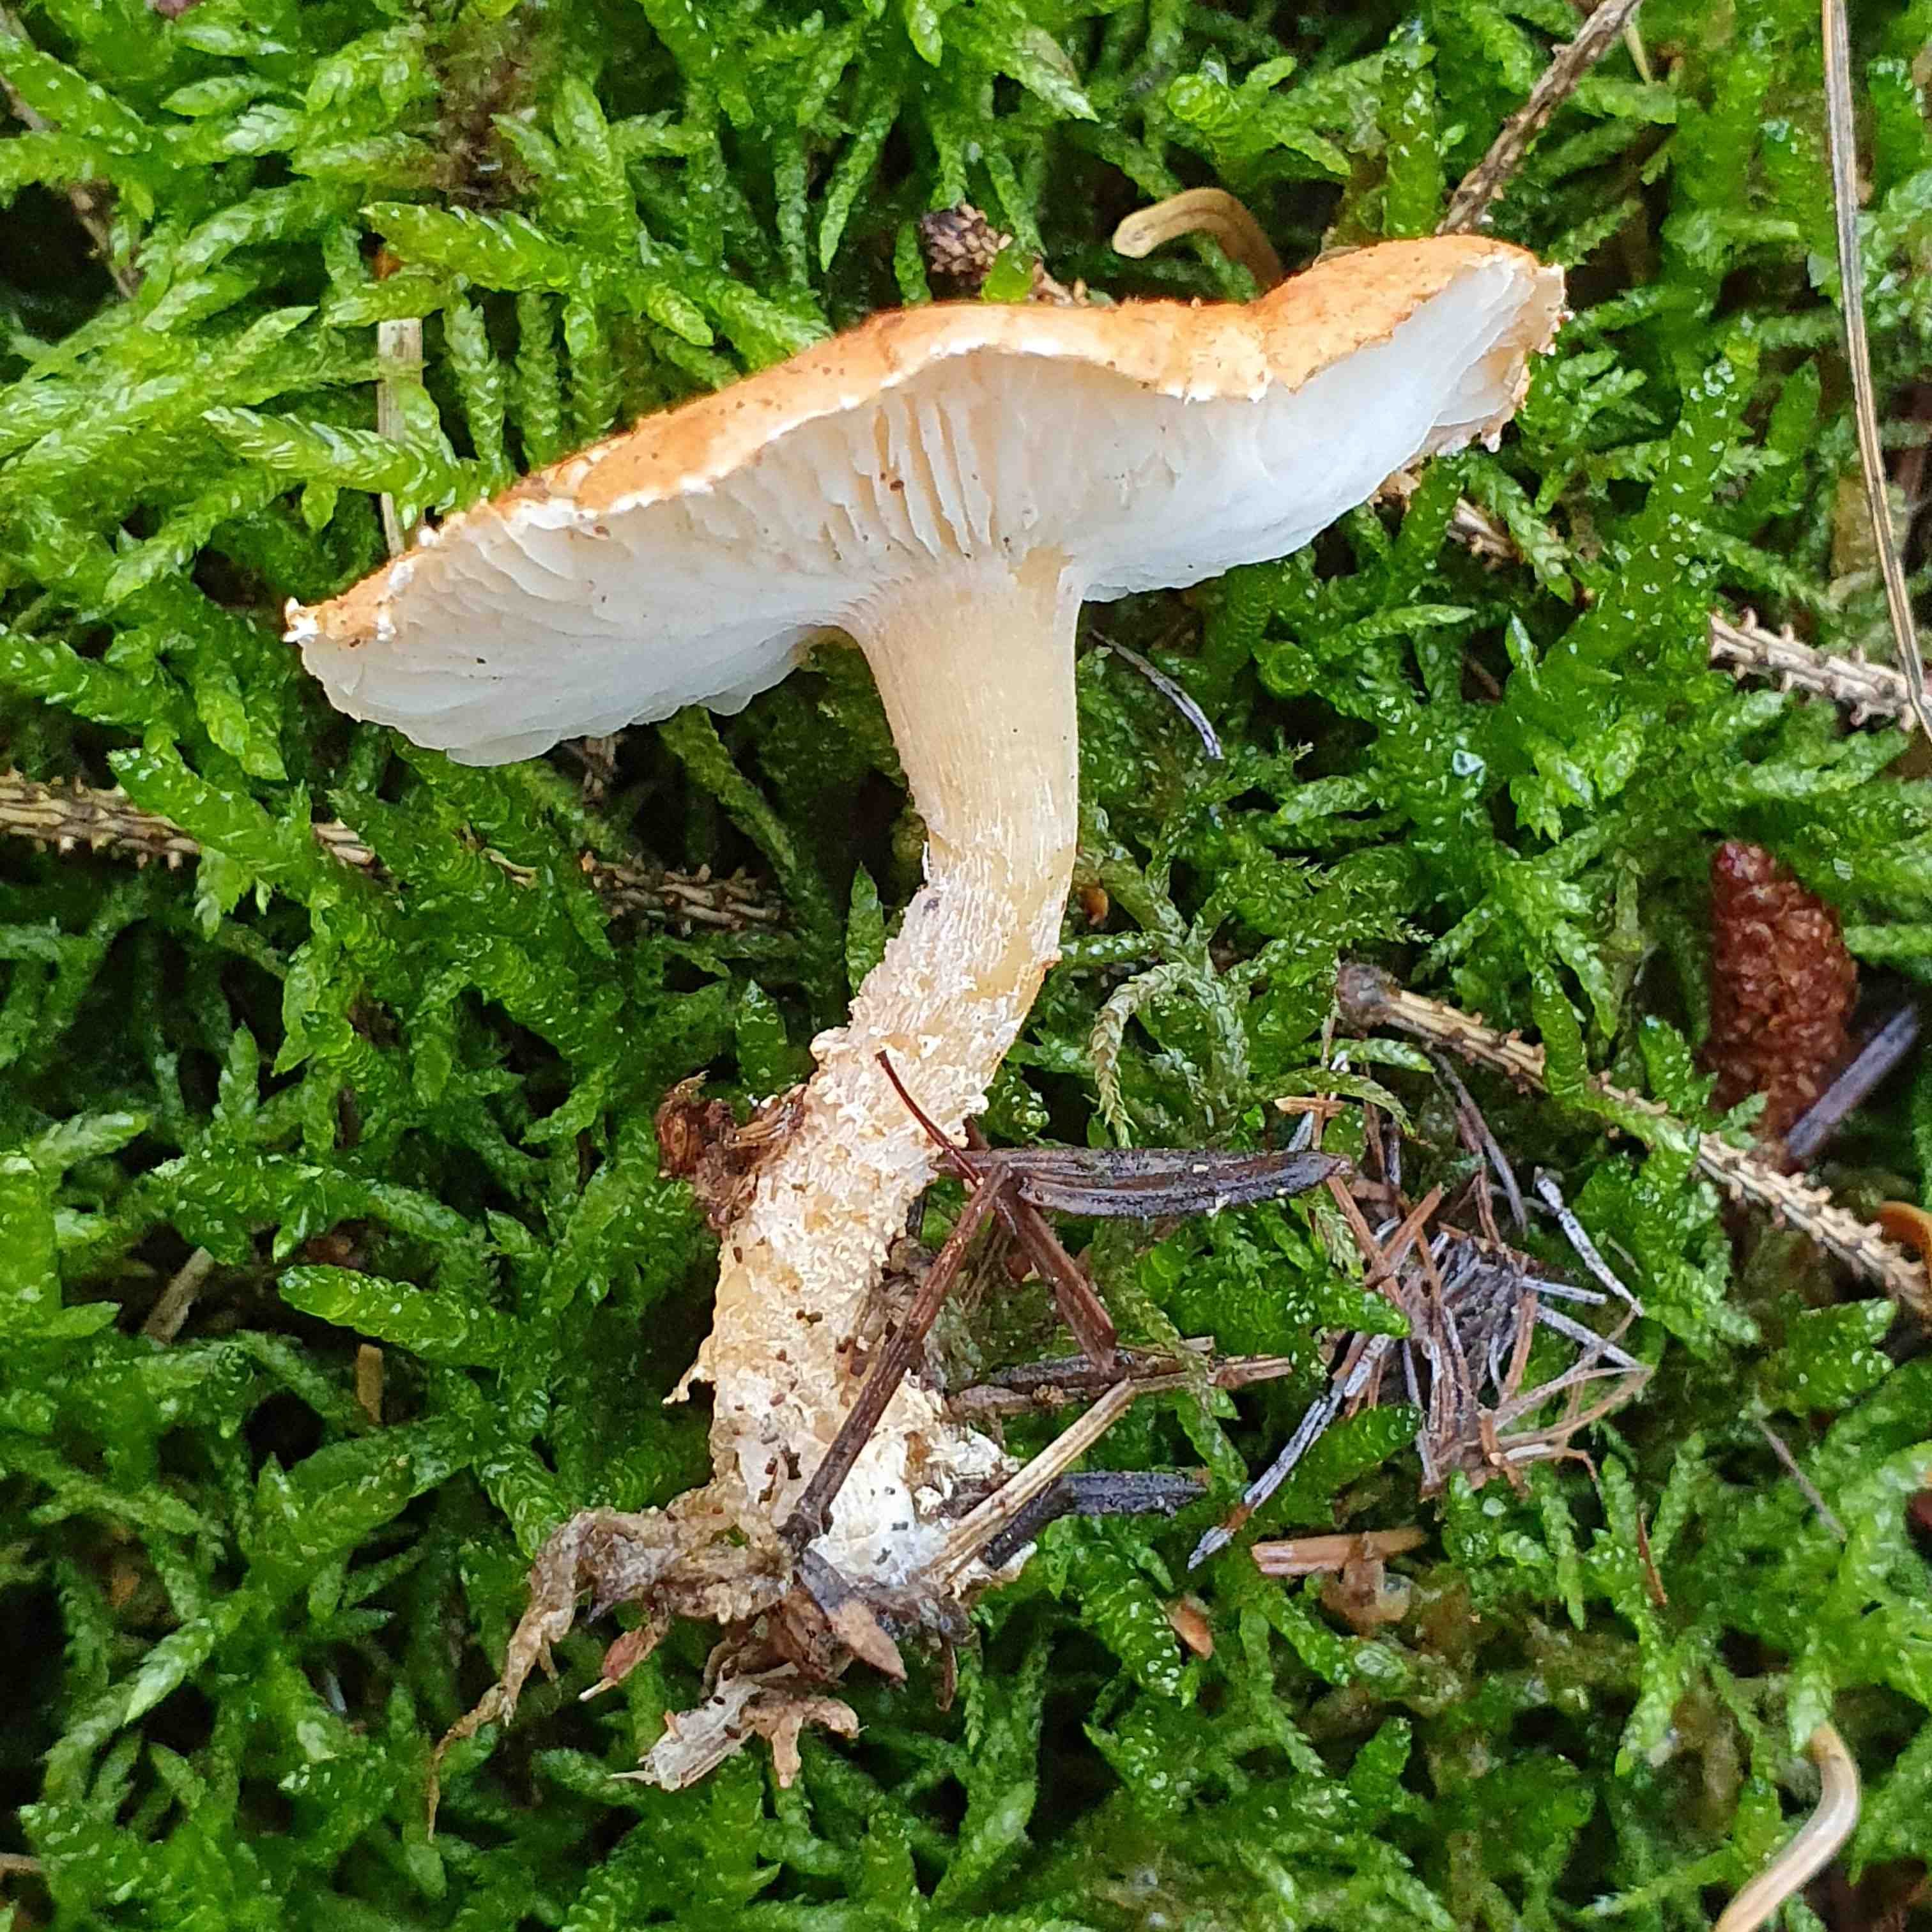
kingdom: Fungi
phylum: Basidiomycota
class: Agaricomycetes
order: Agaricales
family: Agaricaceae
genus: Cystodermella
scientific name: Cystodermella
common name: grynhat
